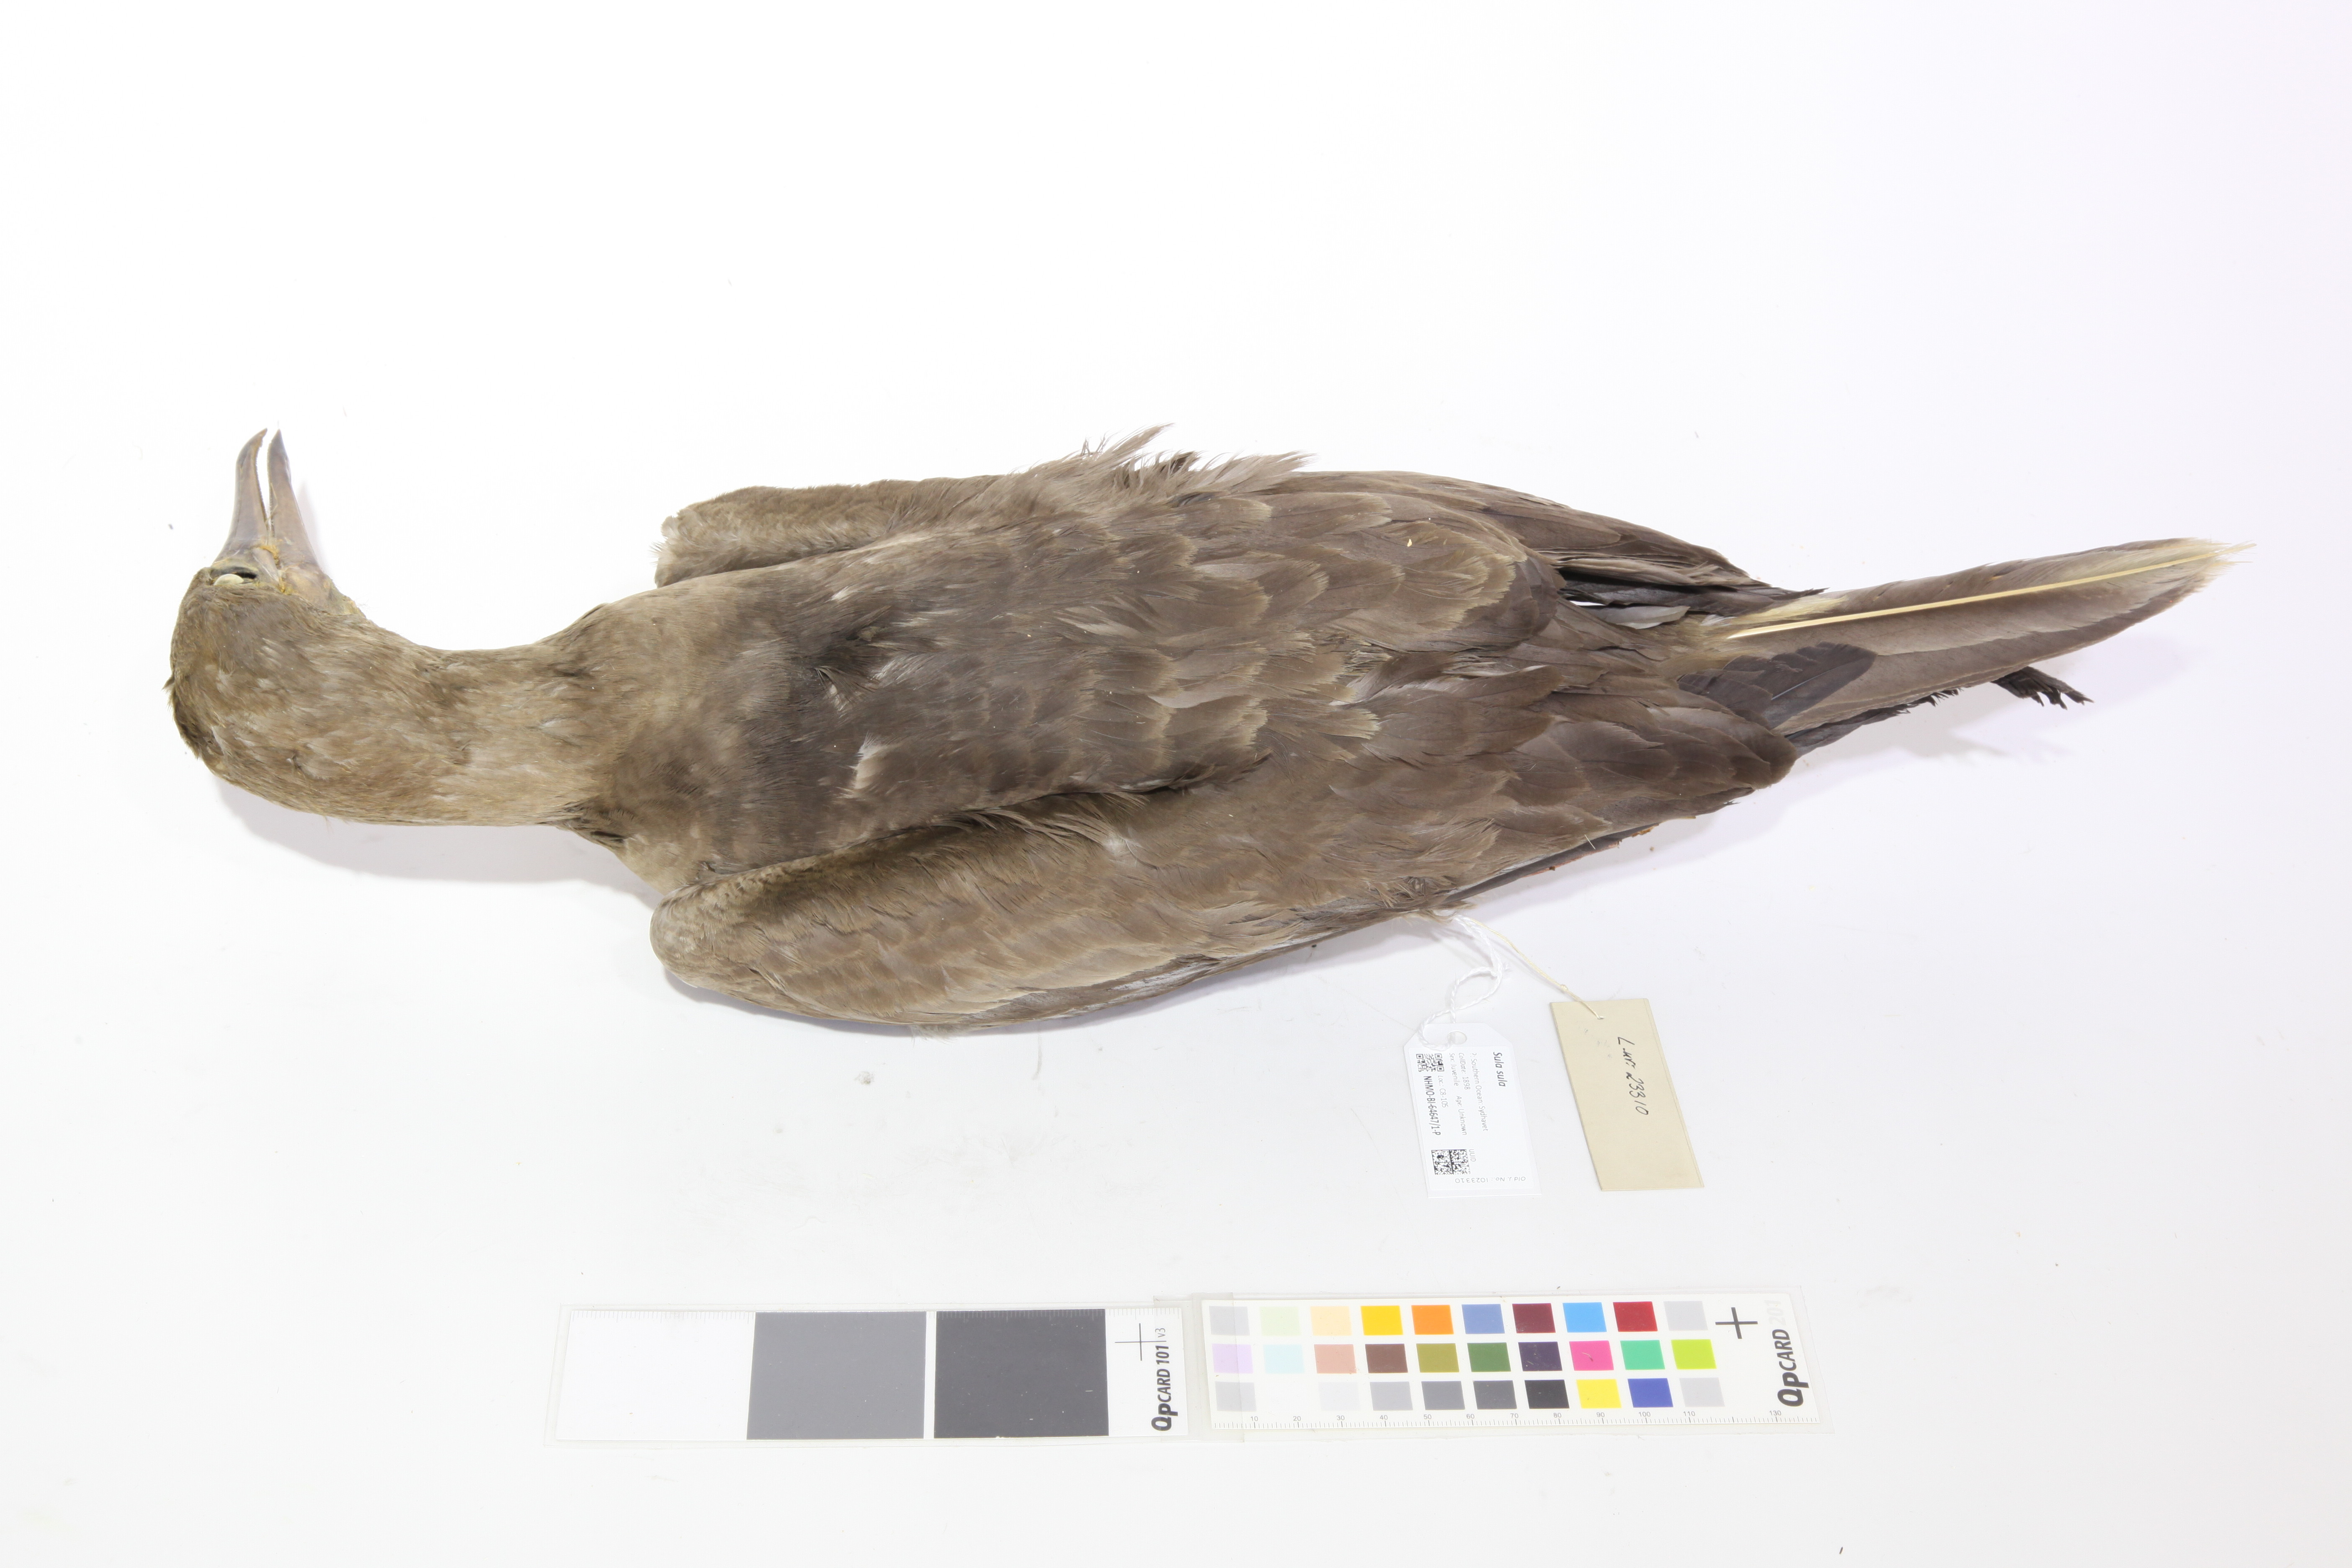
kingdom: Animalia
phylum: Chordata
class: Aves
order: Suliformes
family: Sulidae
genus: Sula
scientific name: Sula sula
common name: Red-footed booby
